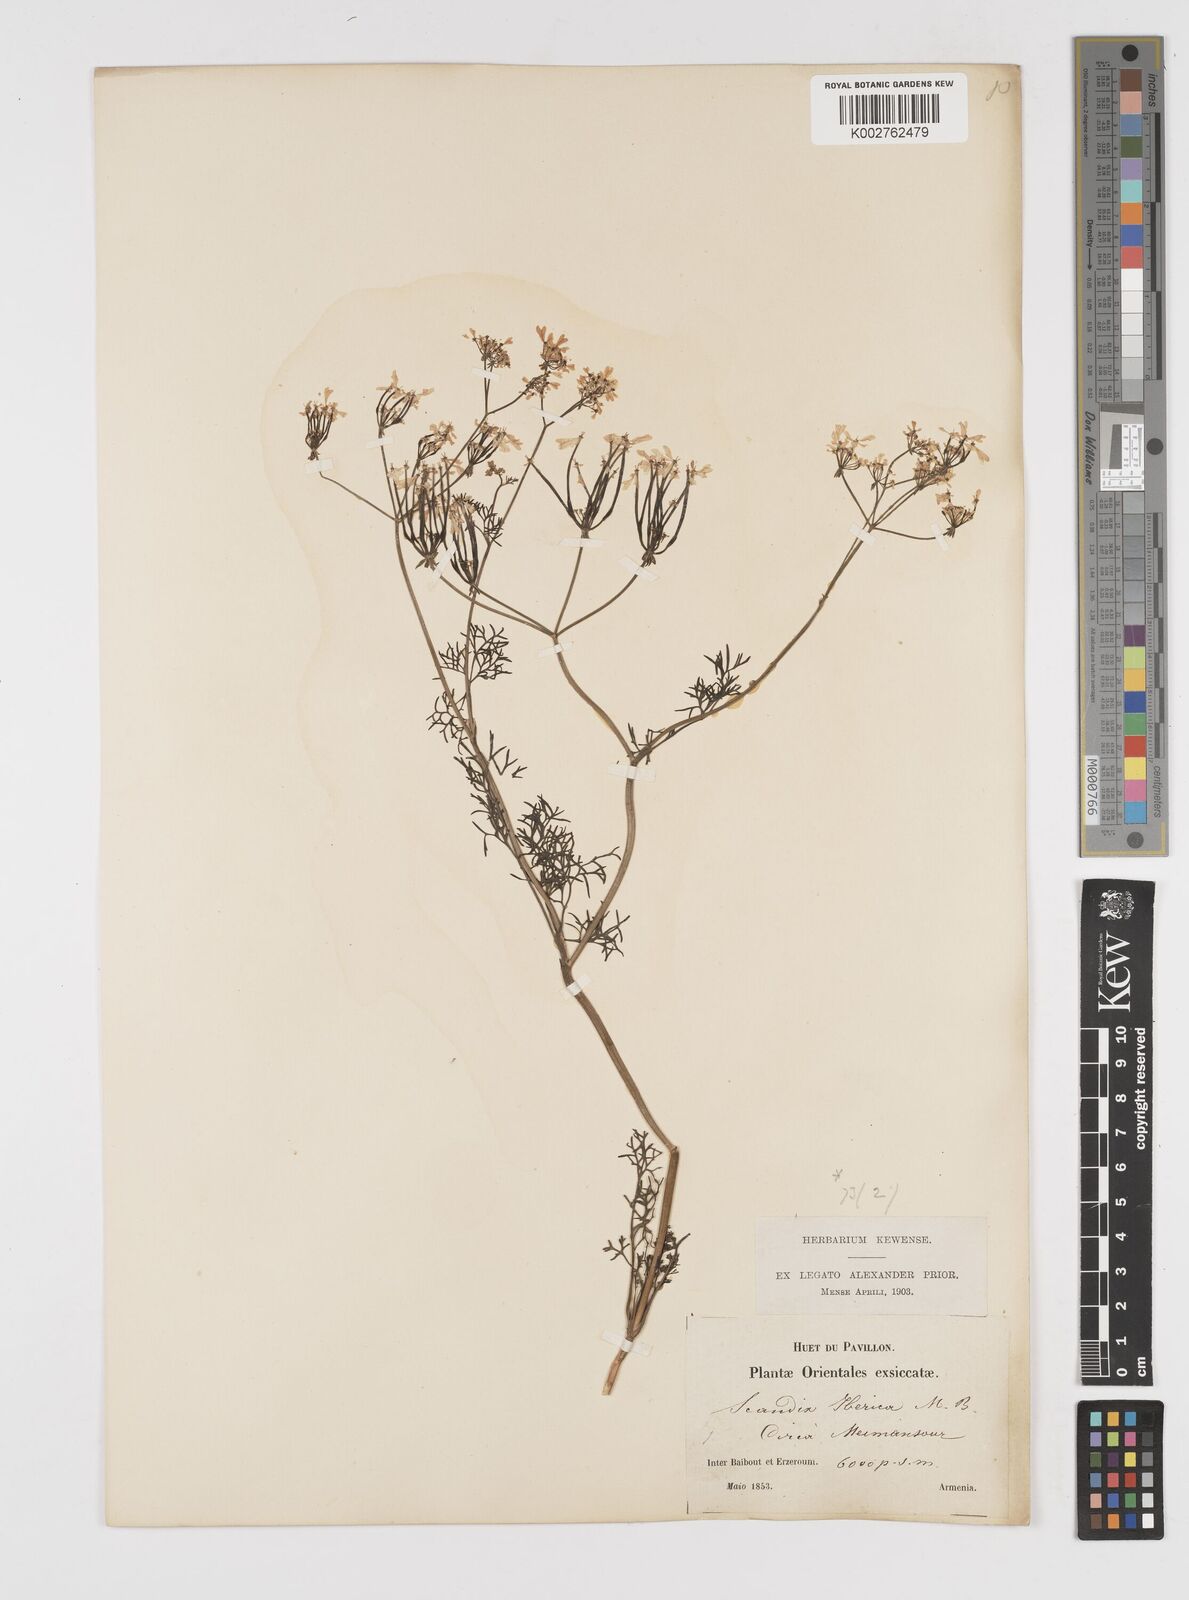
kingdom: Plantae
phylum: Tracheophyta
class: Magnoliopsida
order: Apiales
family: Apiaceae
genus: Scandix
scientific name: Scandix iberica
